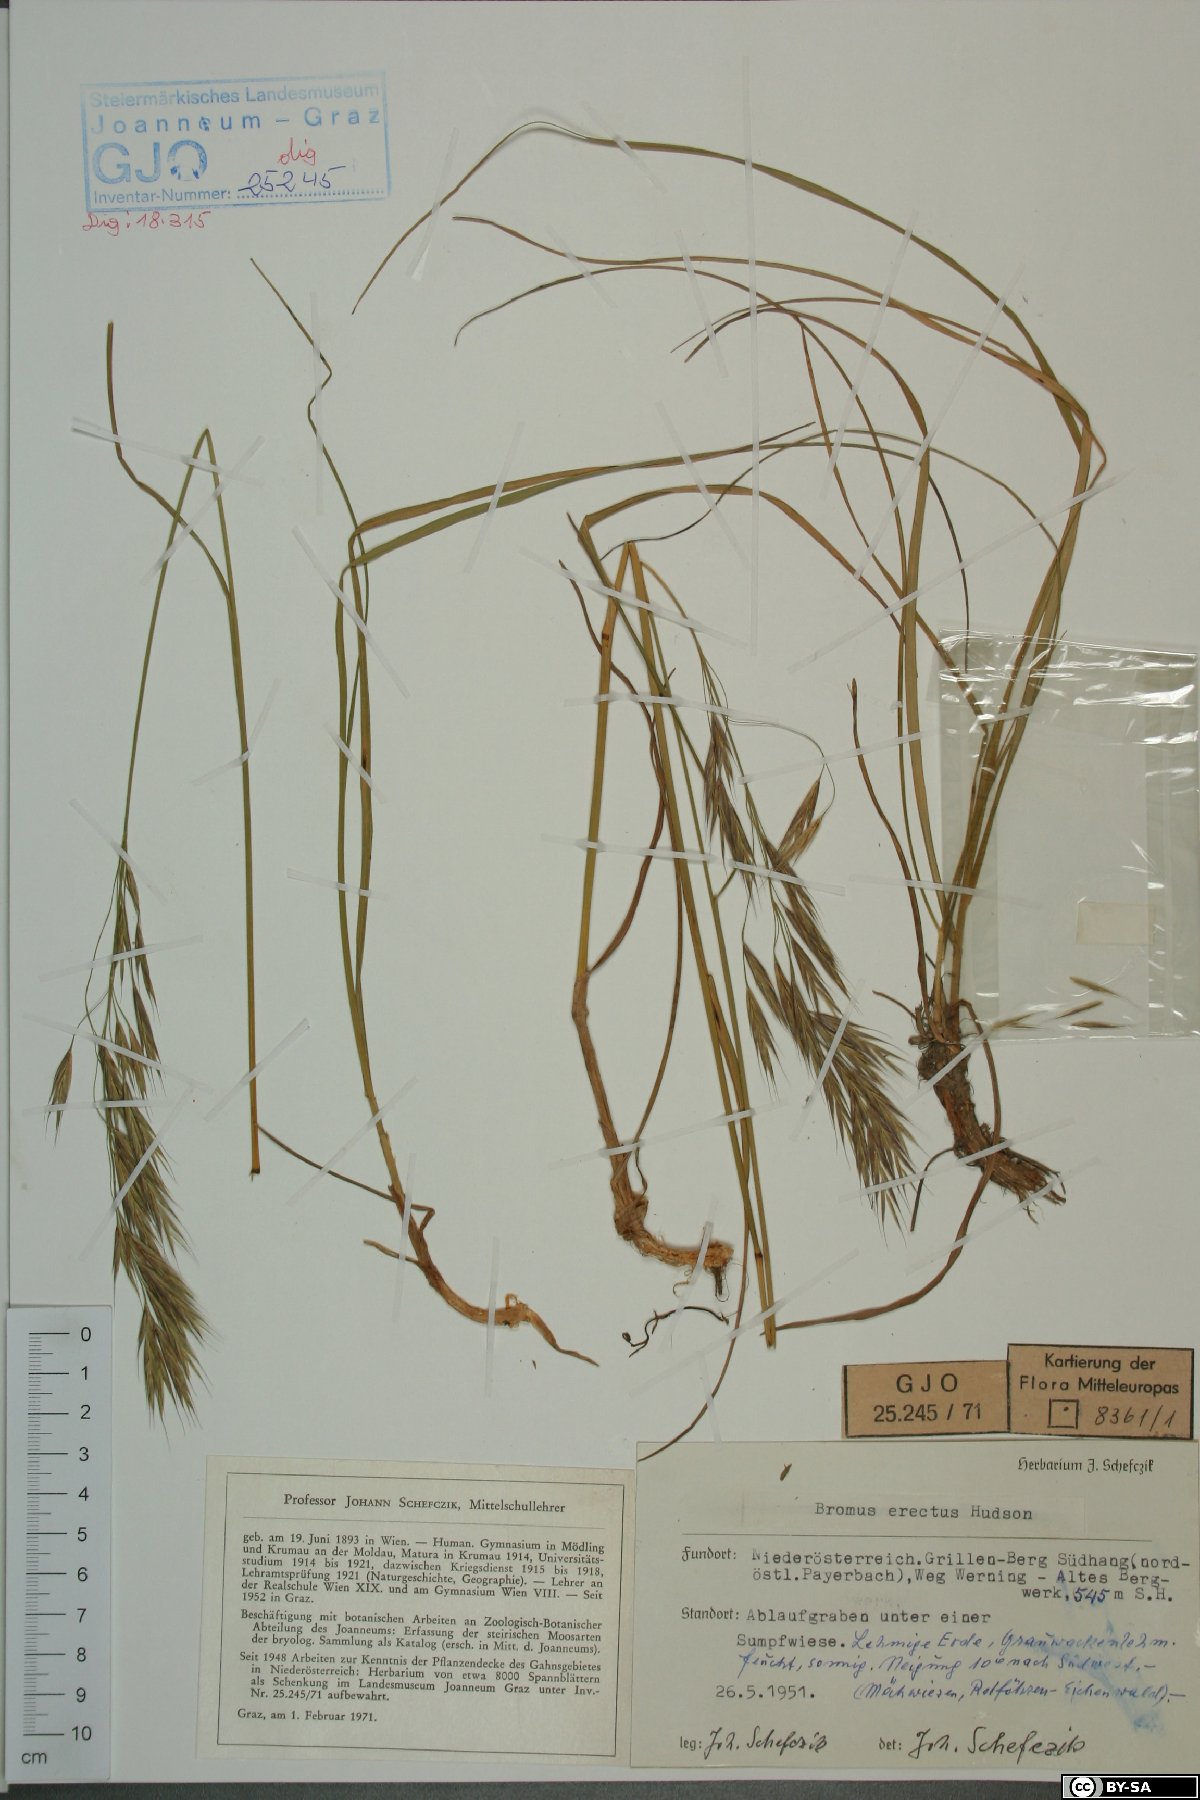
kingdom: Plantae
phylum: Tracheophyta
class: Liliopsida
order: Poales
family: Poaceae
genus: Bromus
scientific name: Bromus erectus
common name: Erect brome
